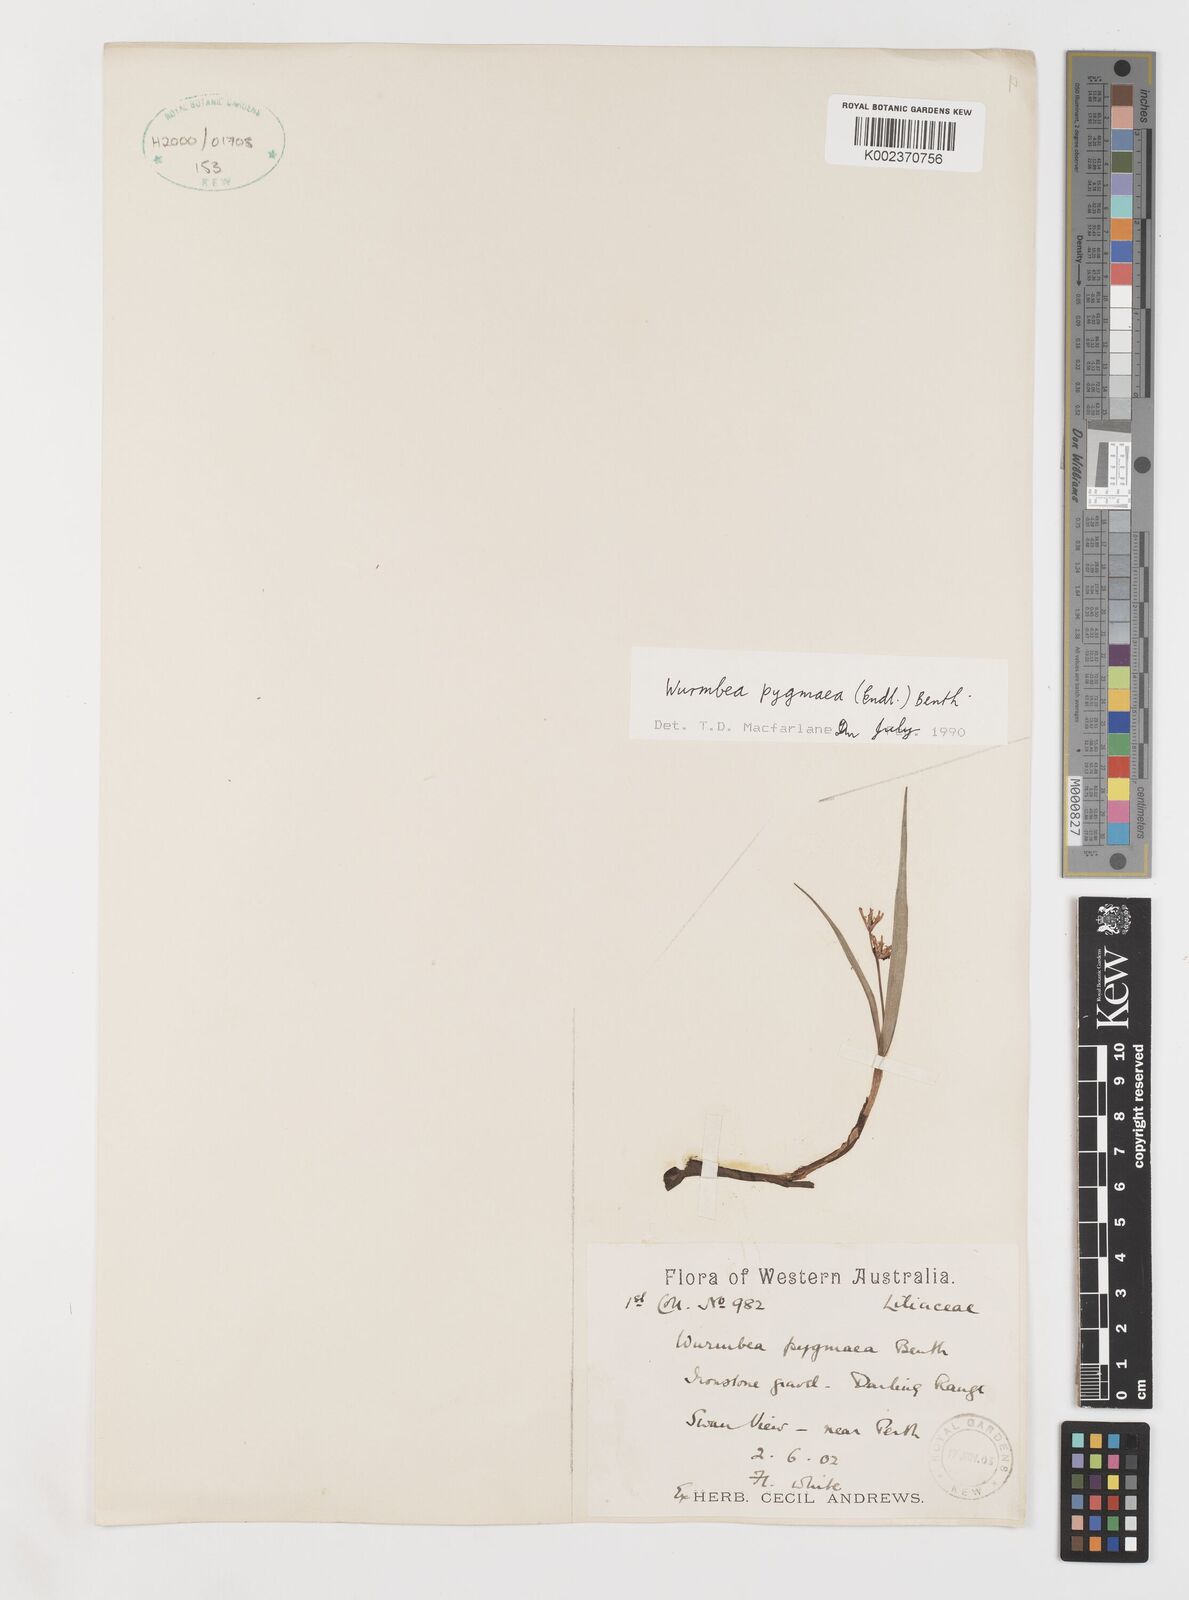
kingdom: Plantae
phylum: Tracheophyta
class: Liliopsida
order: Liliales
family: Colchicaceae
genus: Wurmbea
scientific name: Wurmbea pygmaea
